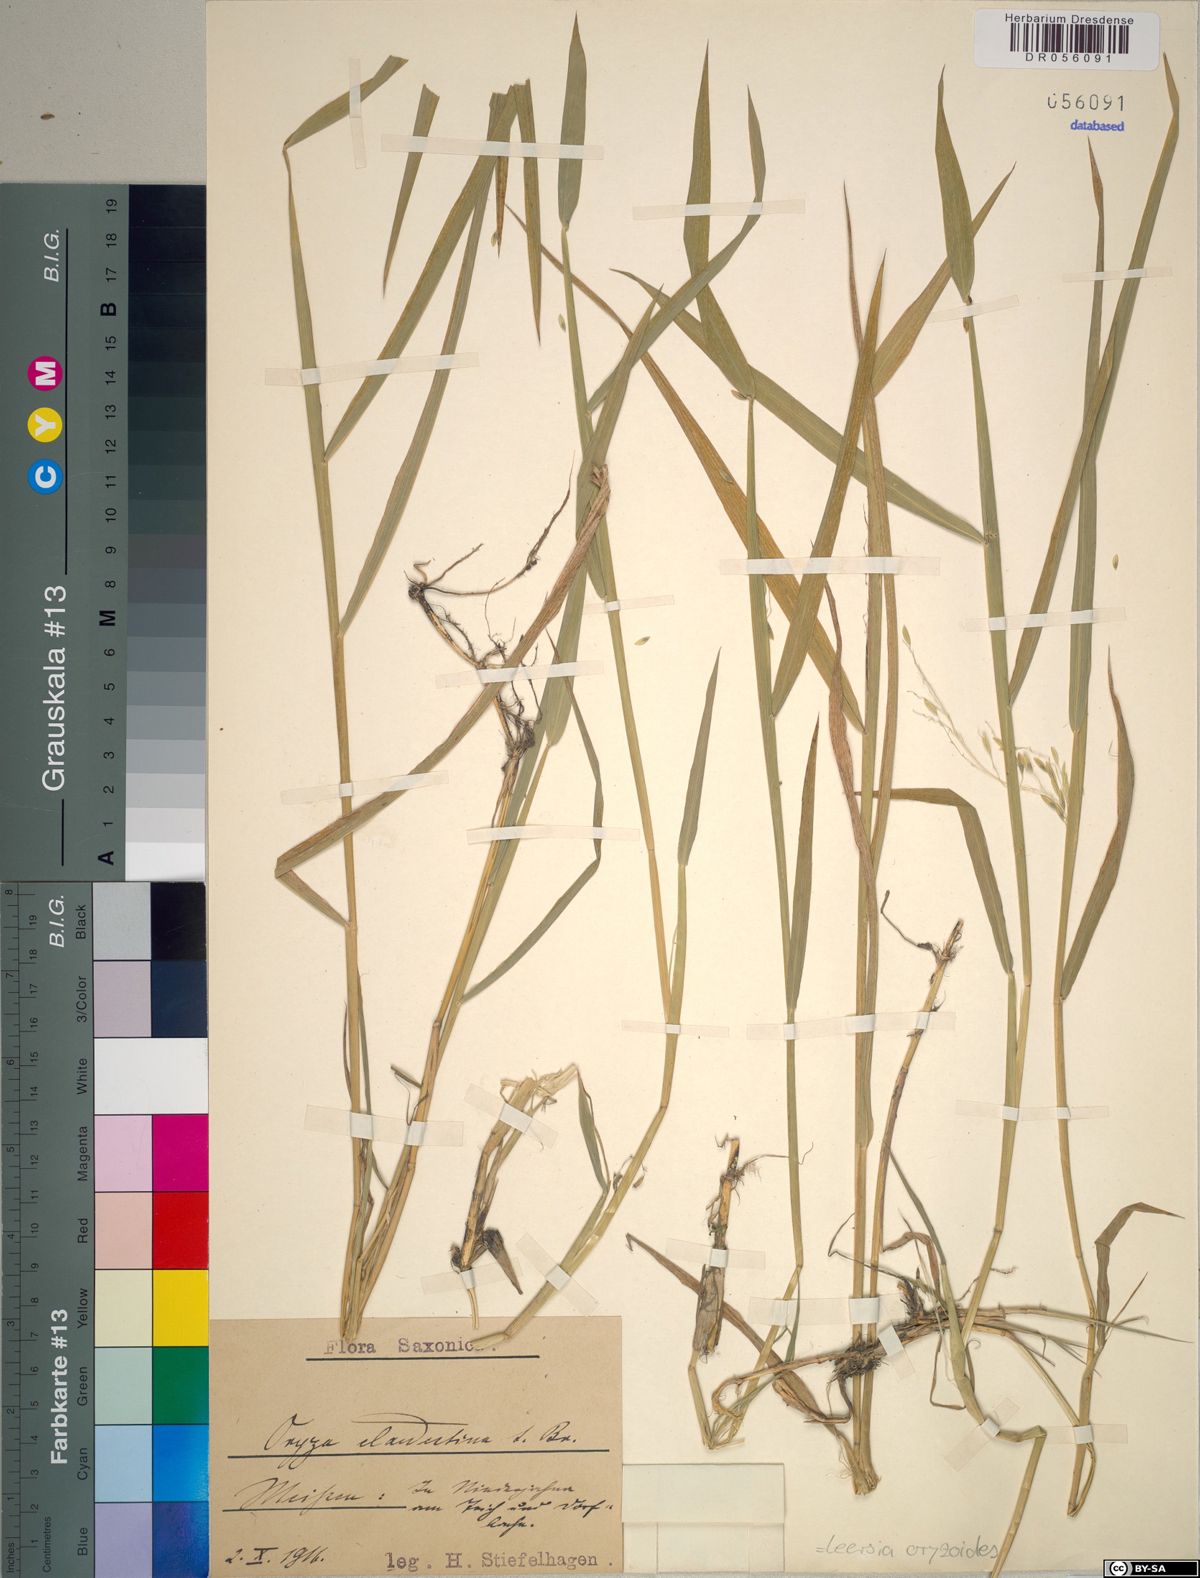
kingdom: Plantae
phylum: Tracheophyta
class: Liliopsida
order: Poales
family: Poaceae
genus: Leersia
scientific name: Leersia oryzoides
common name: Cut-grass
